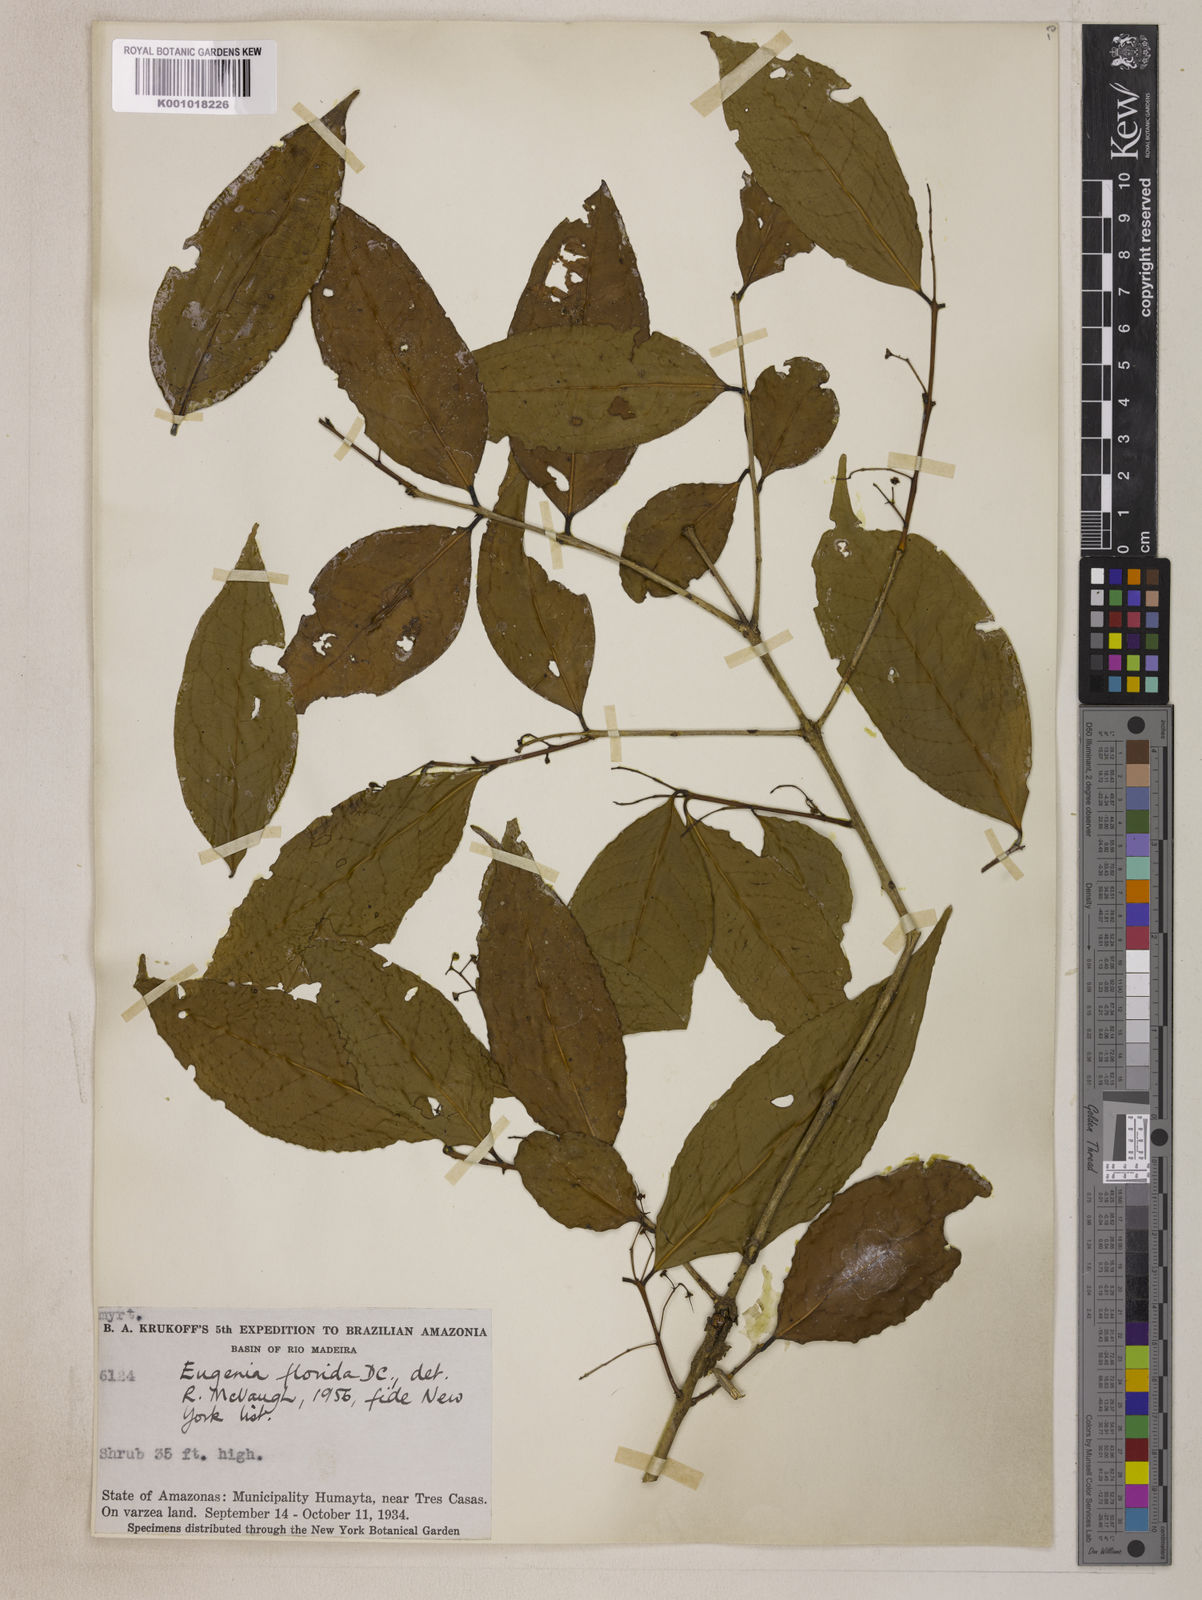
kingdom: Plantae
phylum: Tracheophyta
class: Magnoliopsida
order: Myrtales
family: Myrtaceae
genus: Eugenia
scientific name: Eugenia florida
